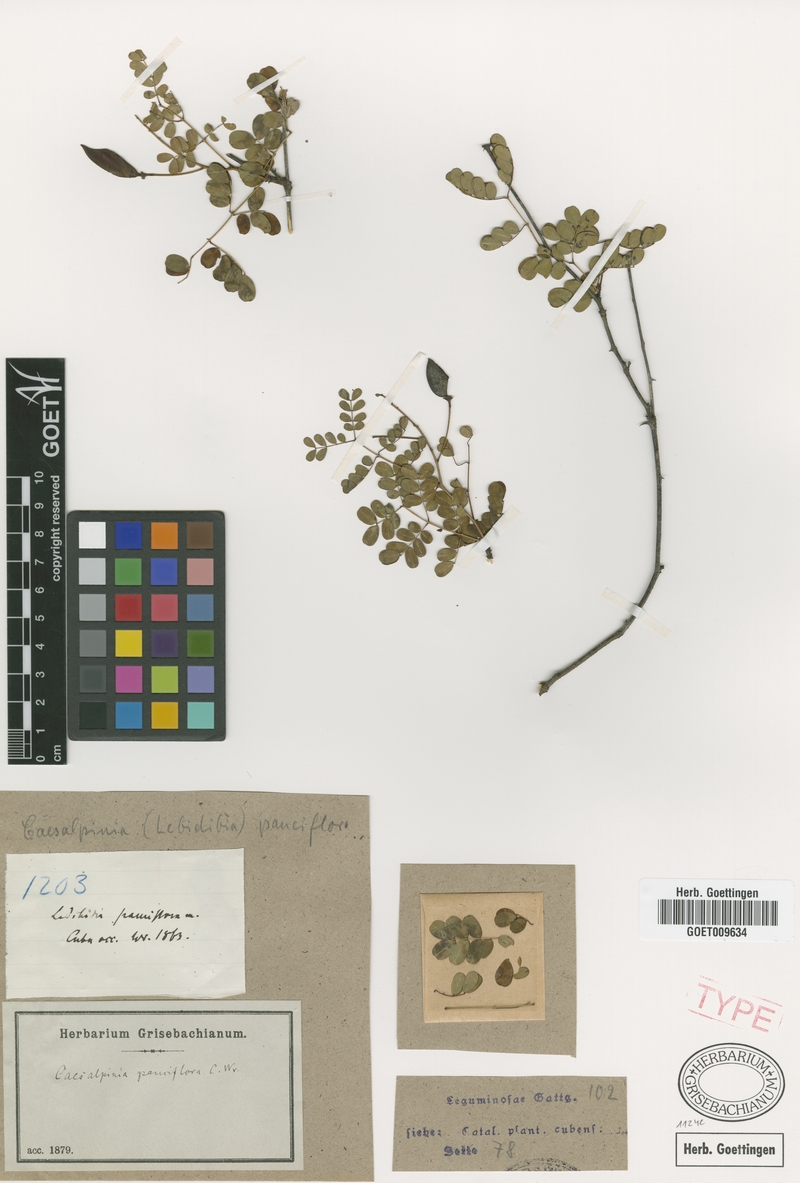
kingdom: Plantae
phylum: Tracheophyta
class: Magnoliopsida
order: Fabales
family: Fabaceae
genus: Denisophytum
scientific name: Denisophytum pauciflorum
